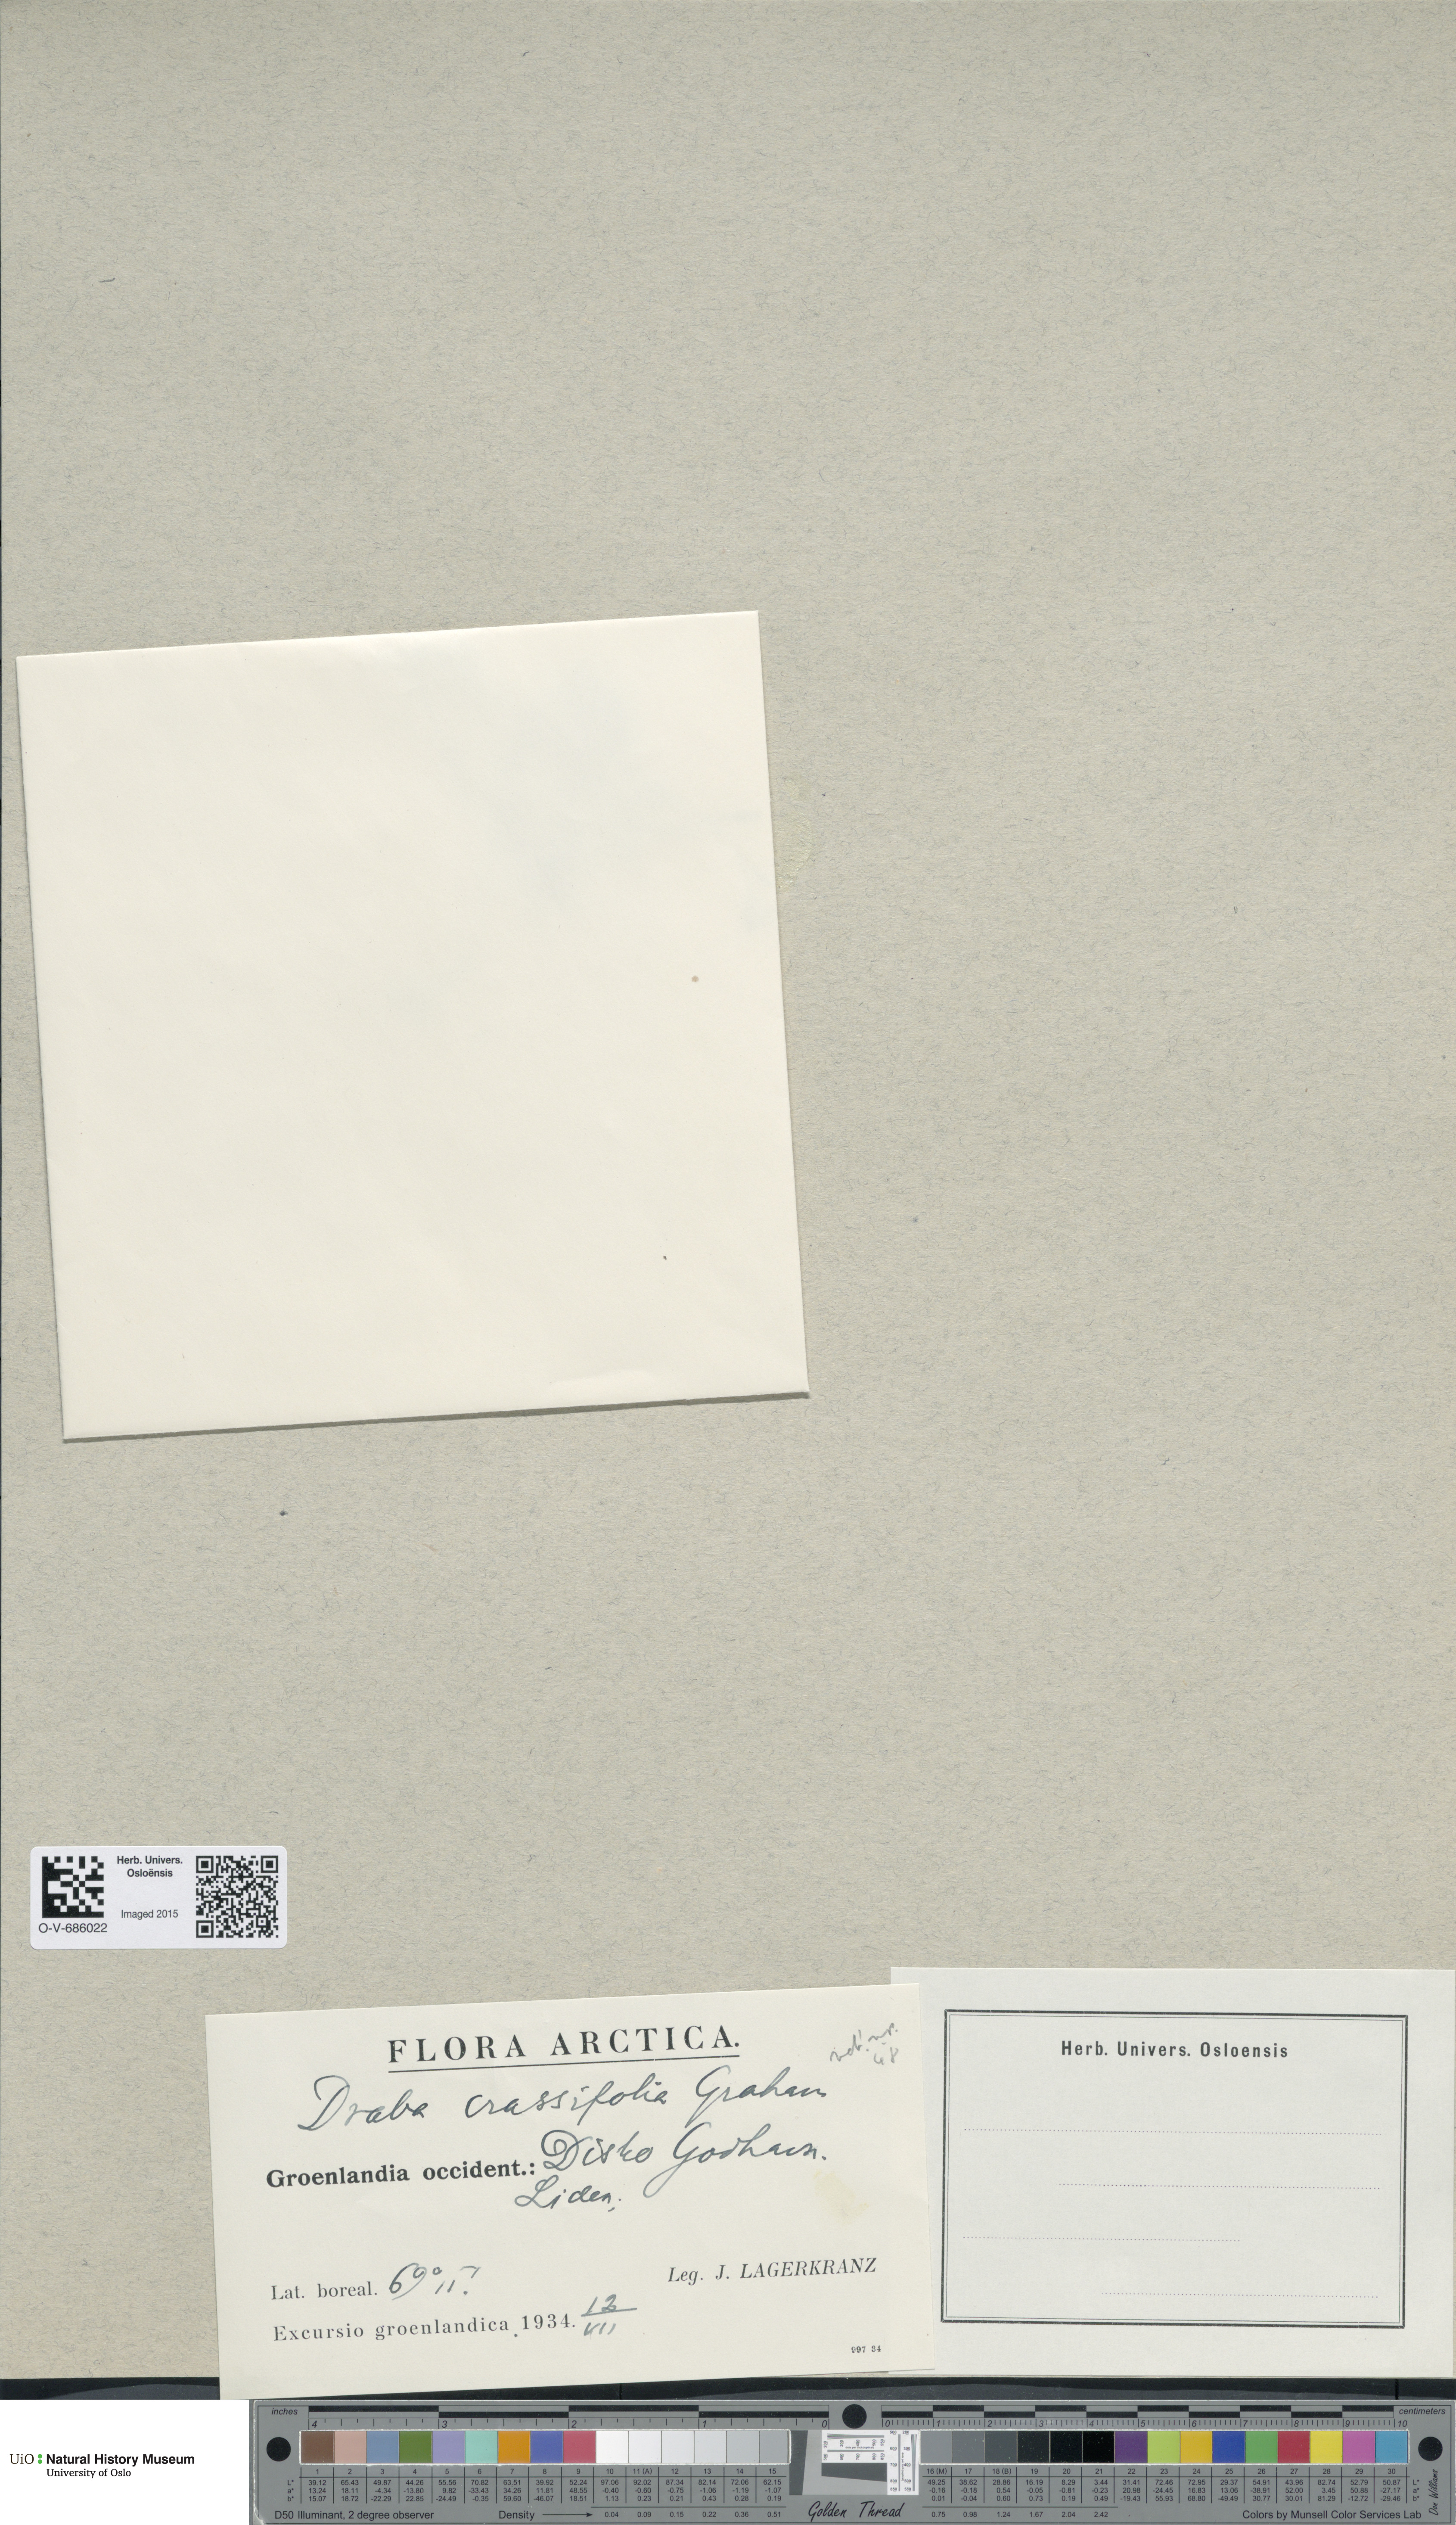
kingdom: Plantae
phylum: Tracheophyta
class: Magnoliopsida
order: Brassicales
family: Brassicaceae
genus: Draba
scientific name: Draba crassifolia
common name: Rocky mountain draba
